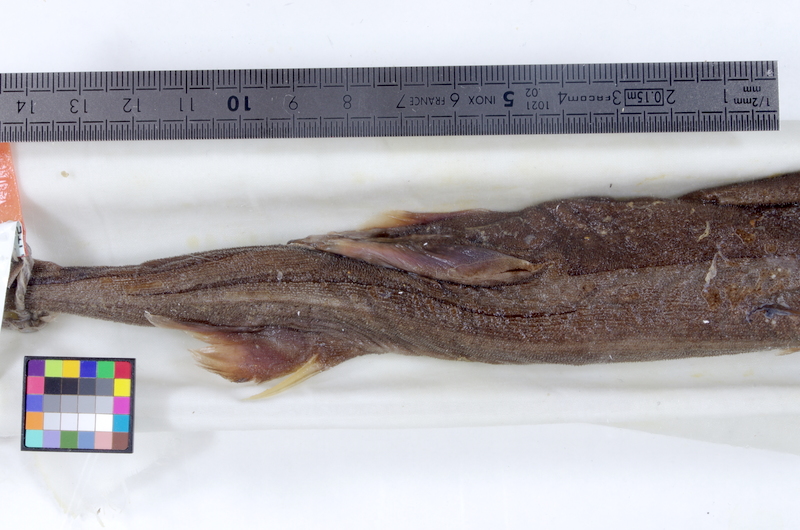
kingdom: Animalia
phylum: Chordata
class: Elasmobranchii
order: Squaliformes
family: Etmopteridae
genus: Etmopterus
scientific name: Etmopterus lucifer
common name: Blackbelly lanternshark
